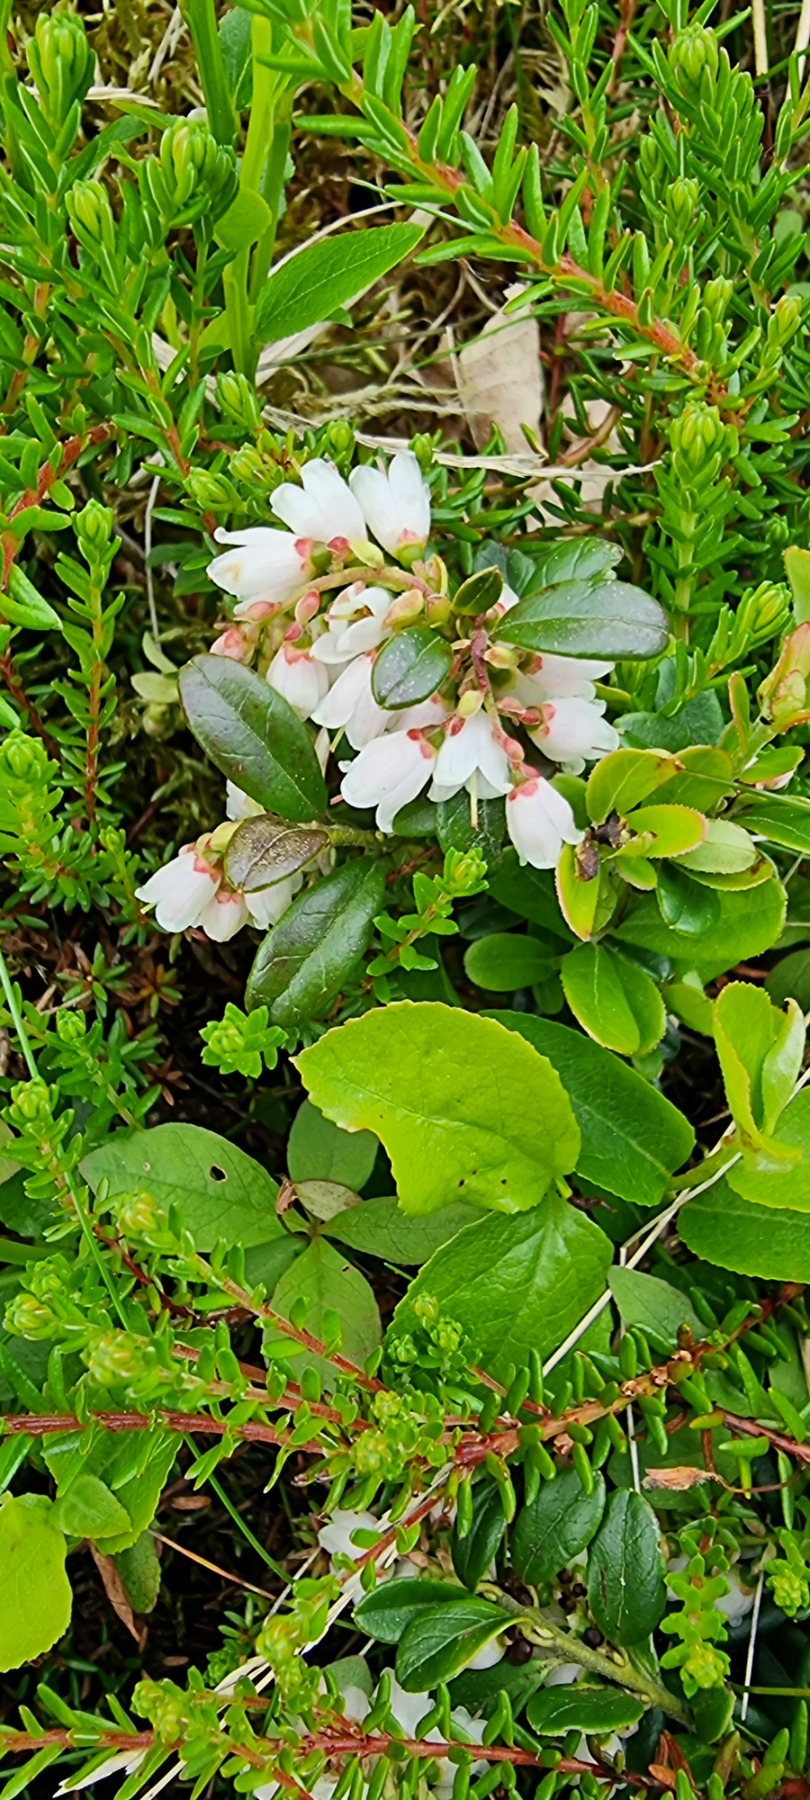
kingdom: Plantae
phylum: Tracheophyta
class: Magnoliopsida
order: Ericales
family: Ericaceae
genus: Vaccinium
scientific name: Vaccinium vitis-idaea
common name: Tyttebær
